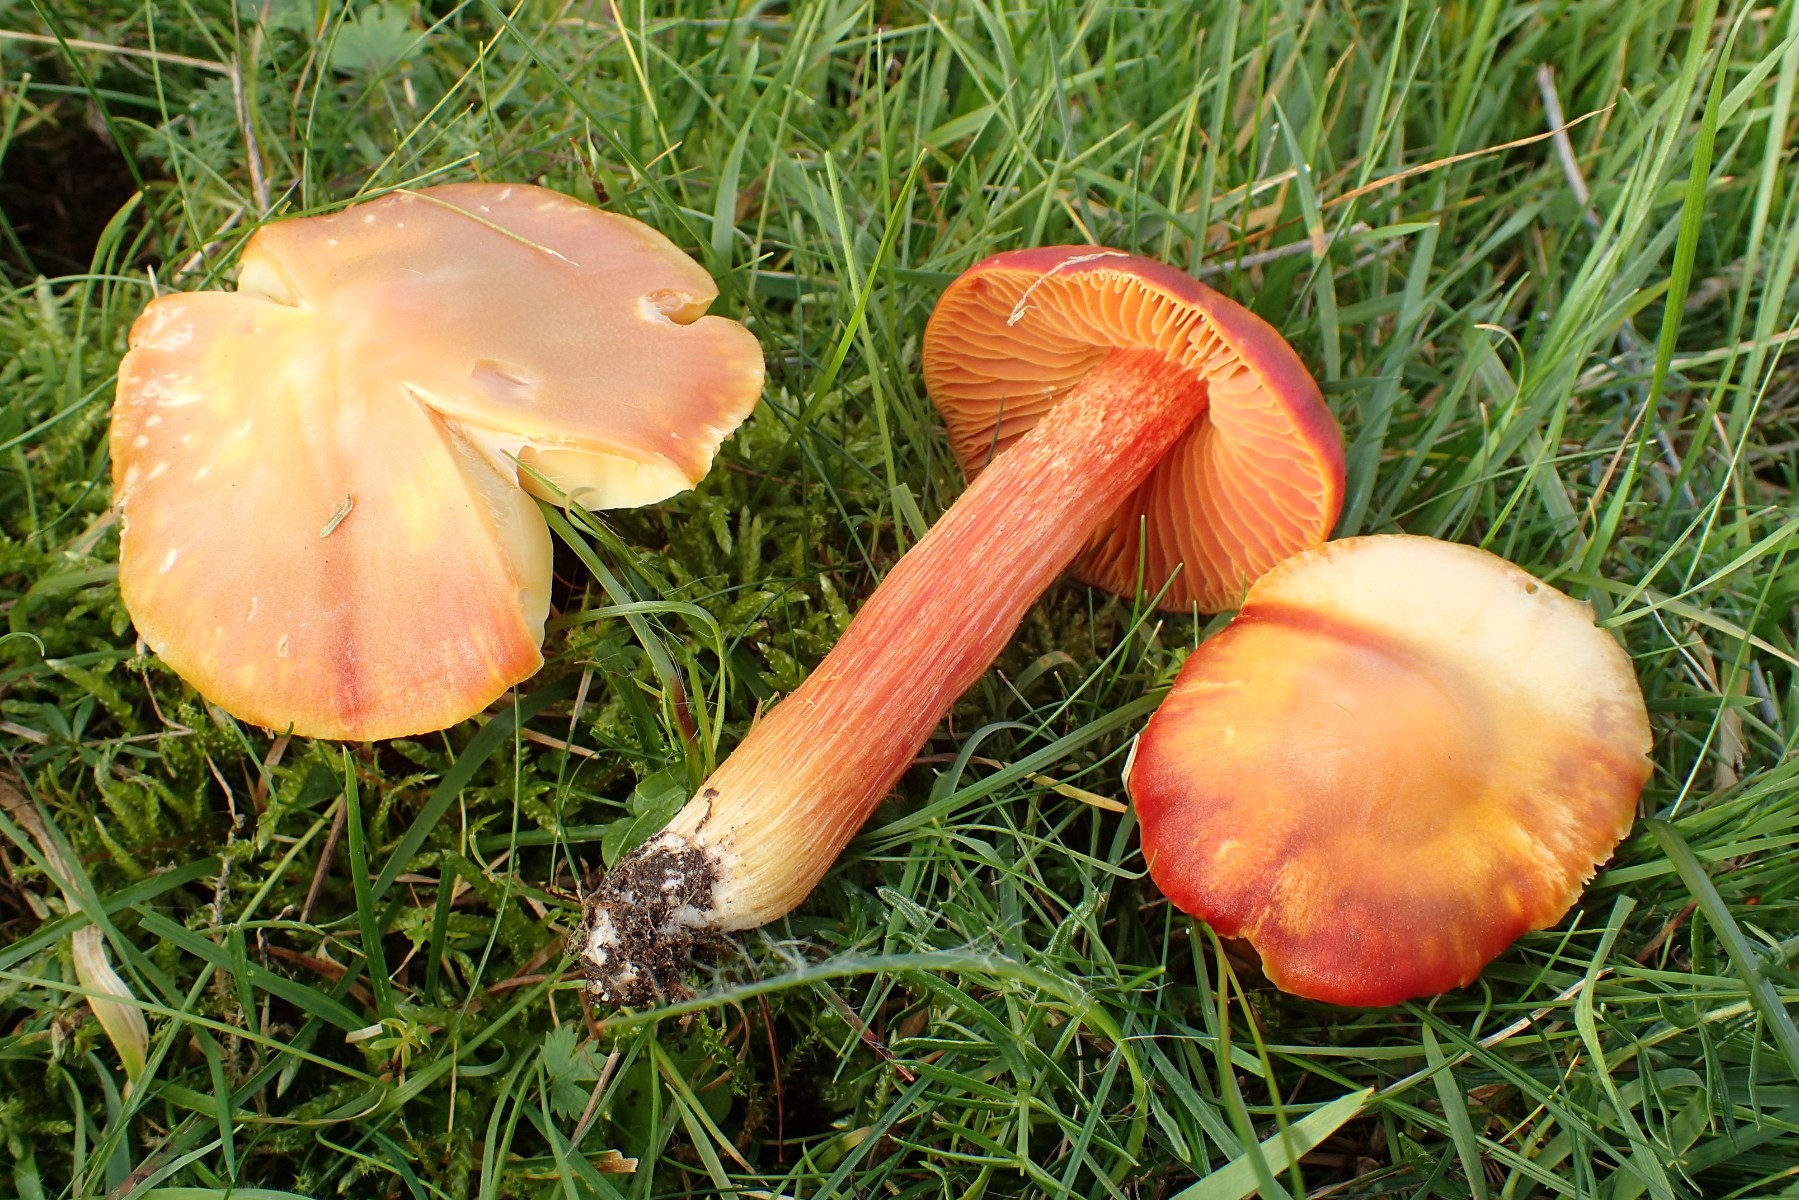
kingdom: Fungi
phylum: Basidiomycota
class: Agaricomycetes
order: Agaricales
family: Hygrophoraceae
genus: Hygrocybe
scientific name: Hygrocybe punicea
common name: skarlagen-vokshat
